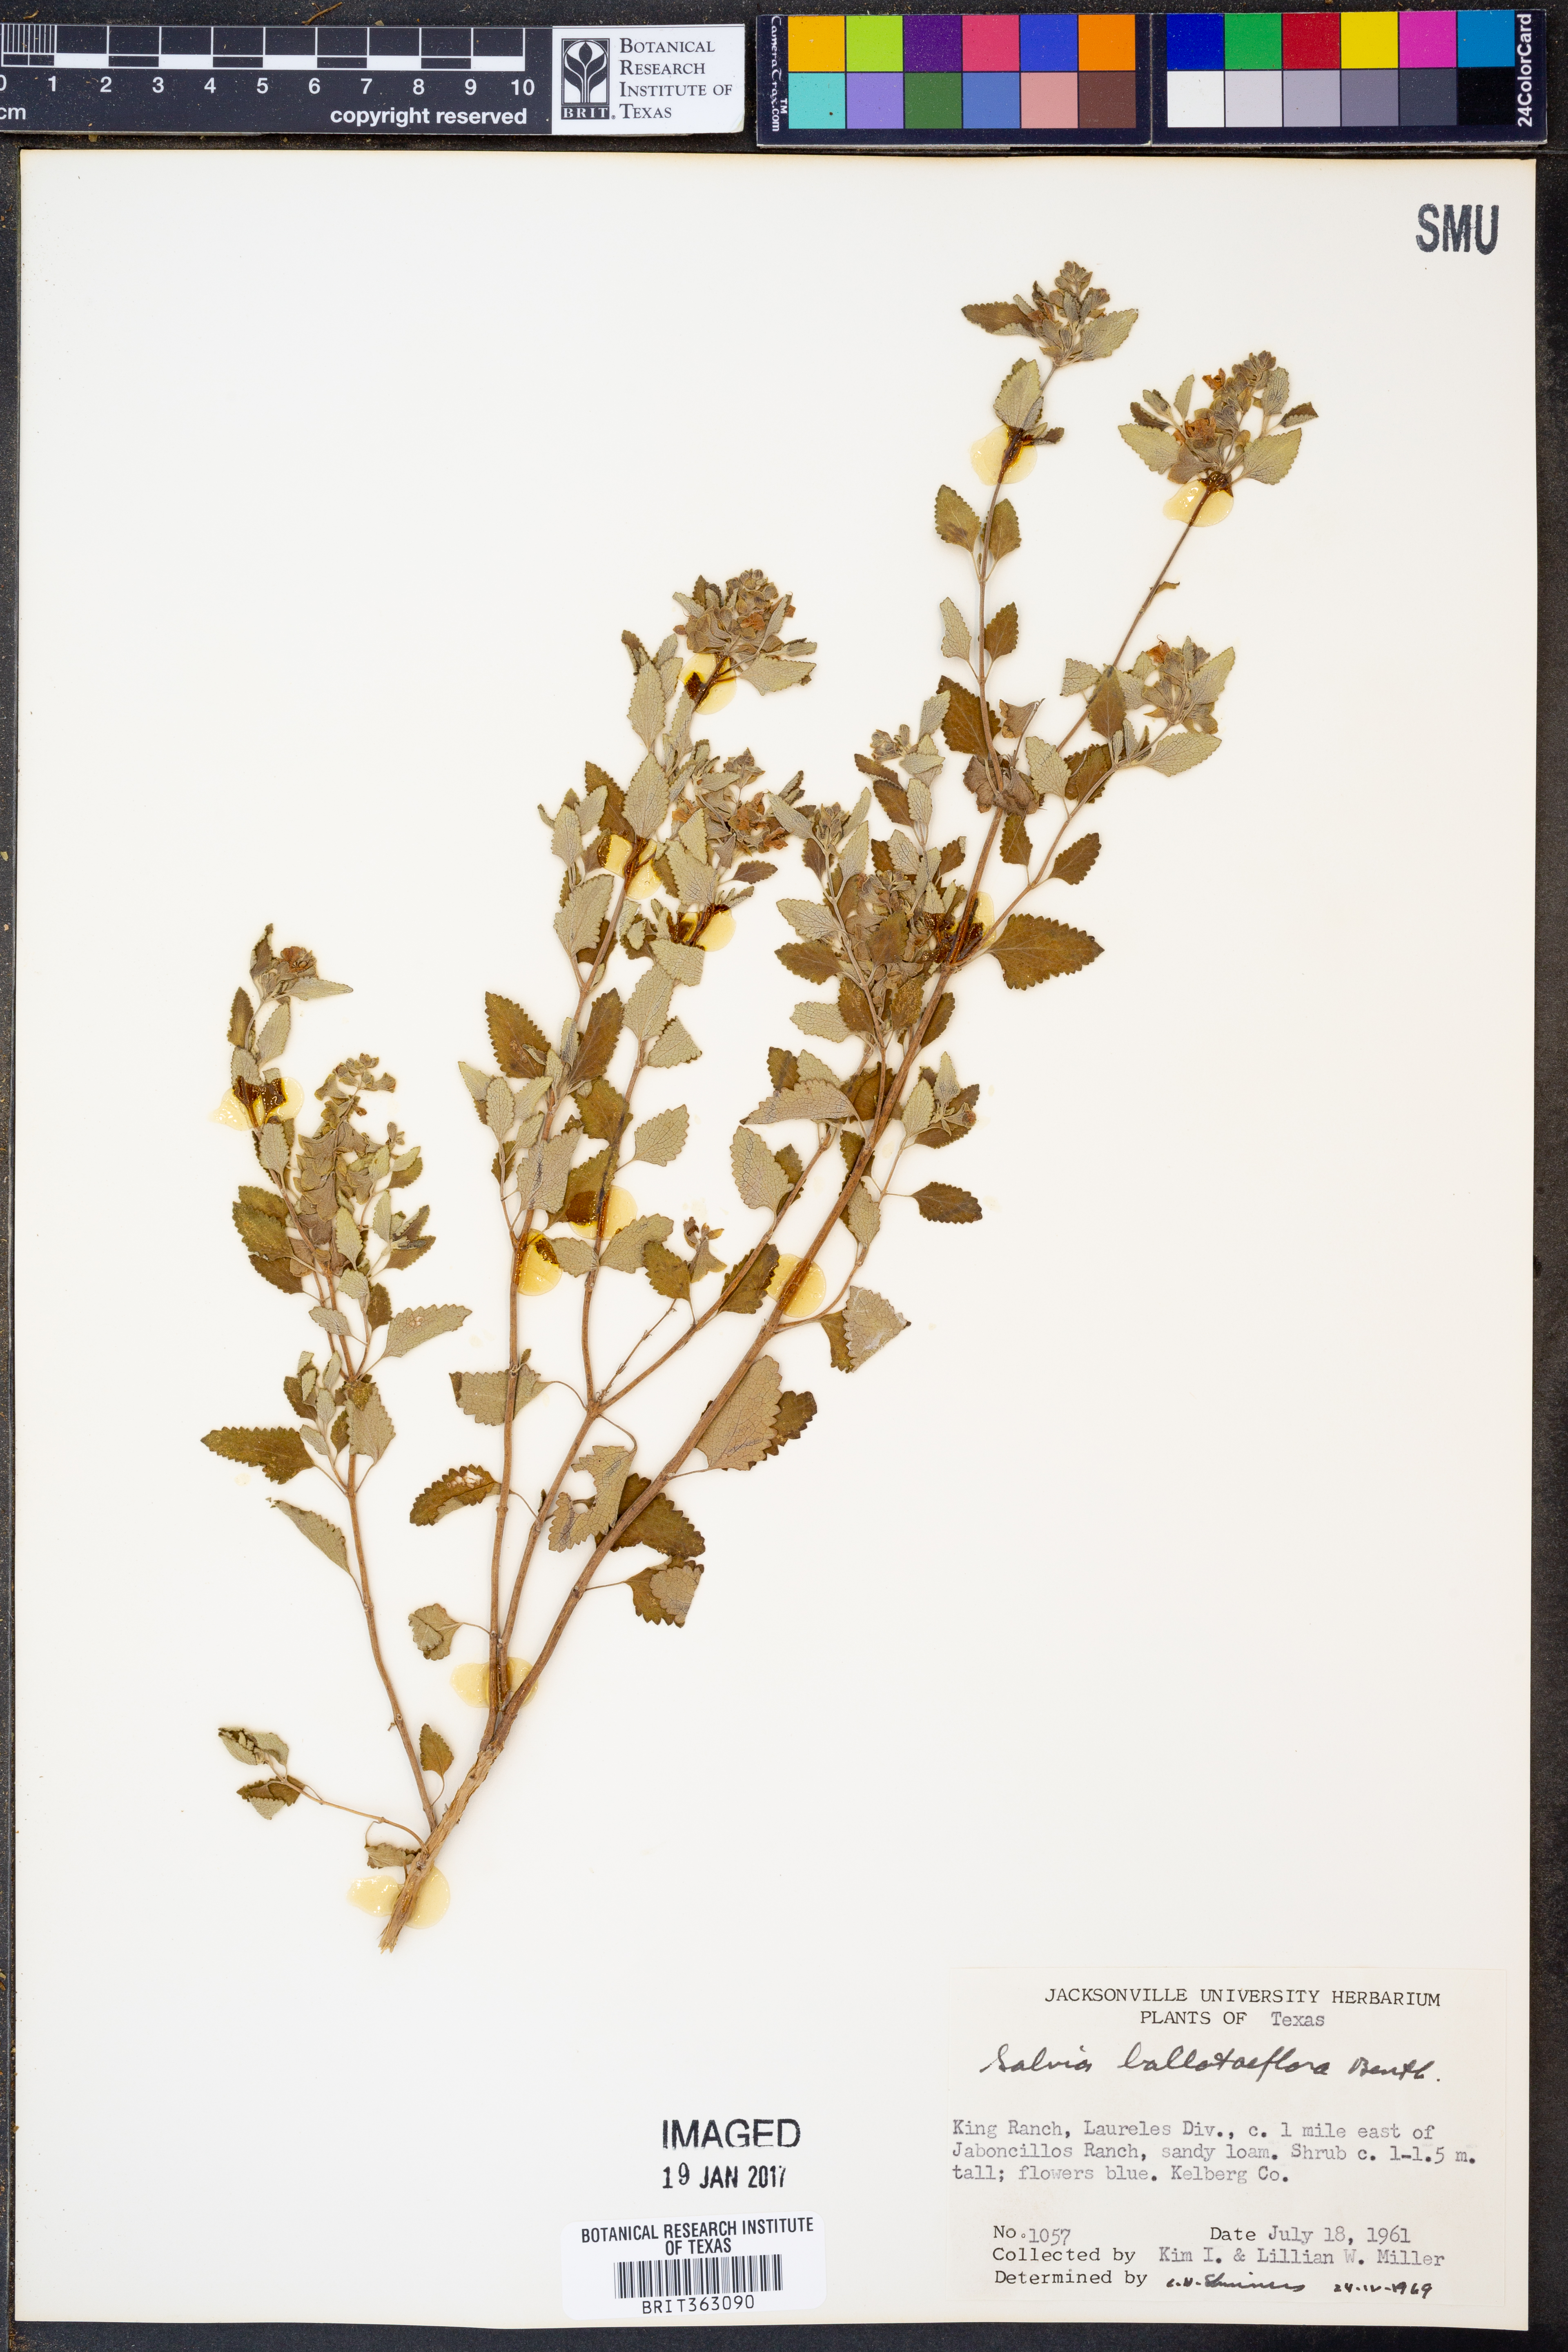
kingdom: Plantae
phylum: Tracheophyta
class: Magnoliopsida
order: Lamiales
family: Lamiaceae
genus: Salvia
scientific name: Salvia ballotiflora
